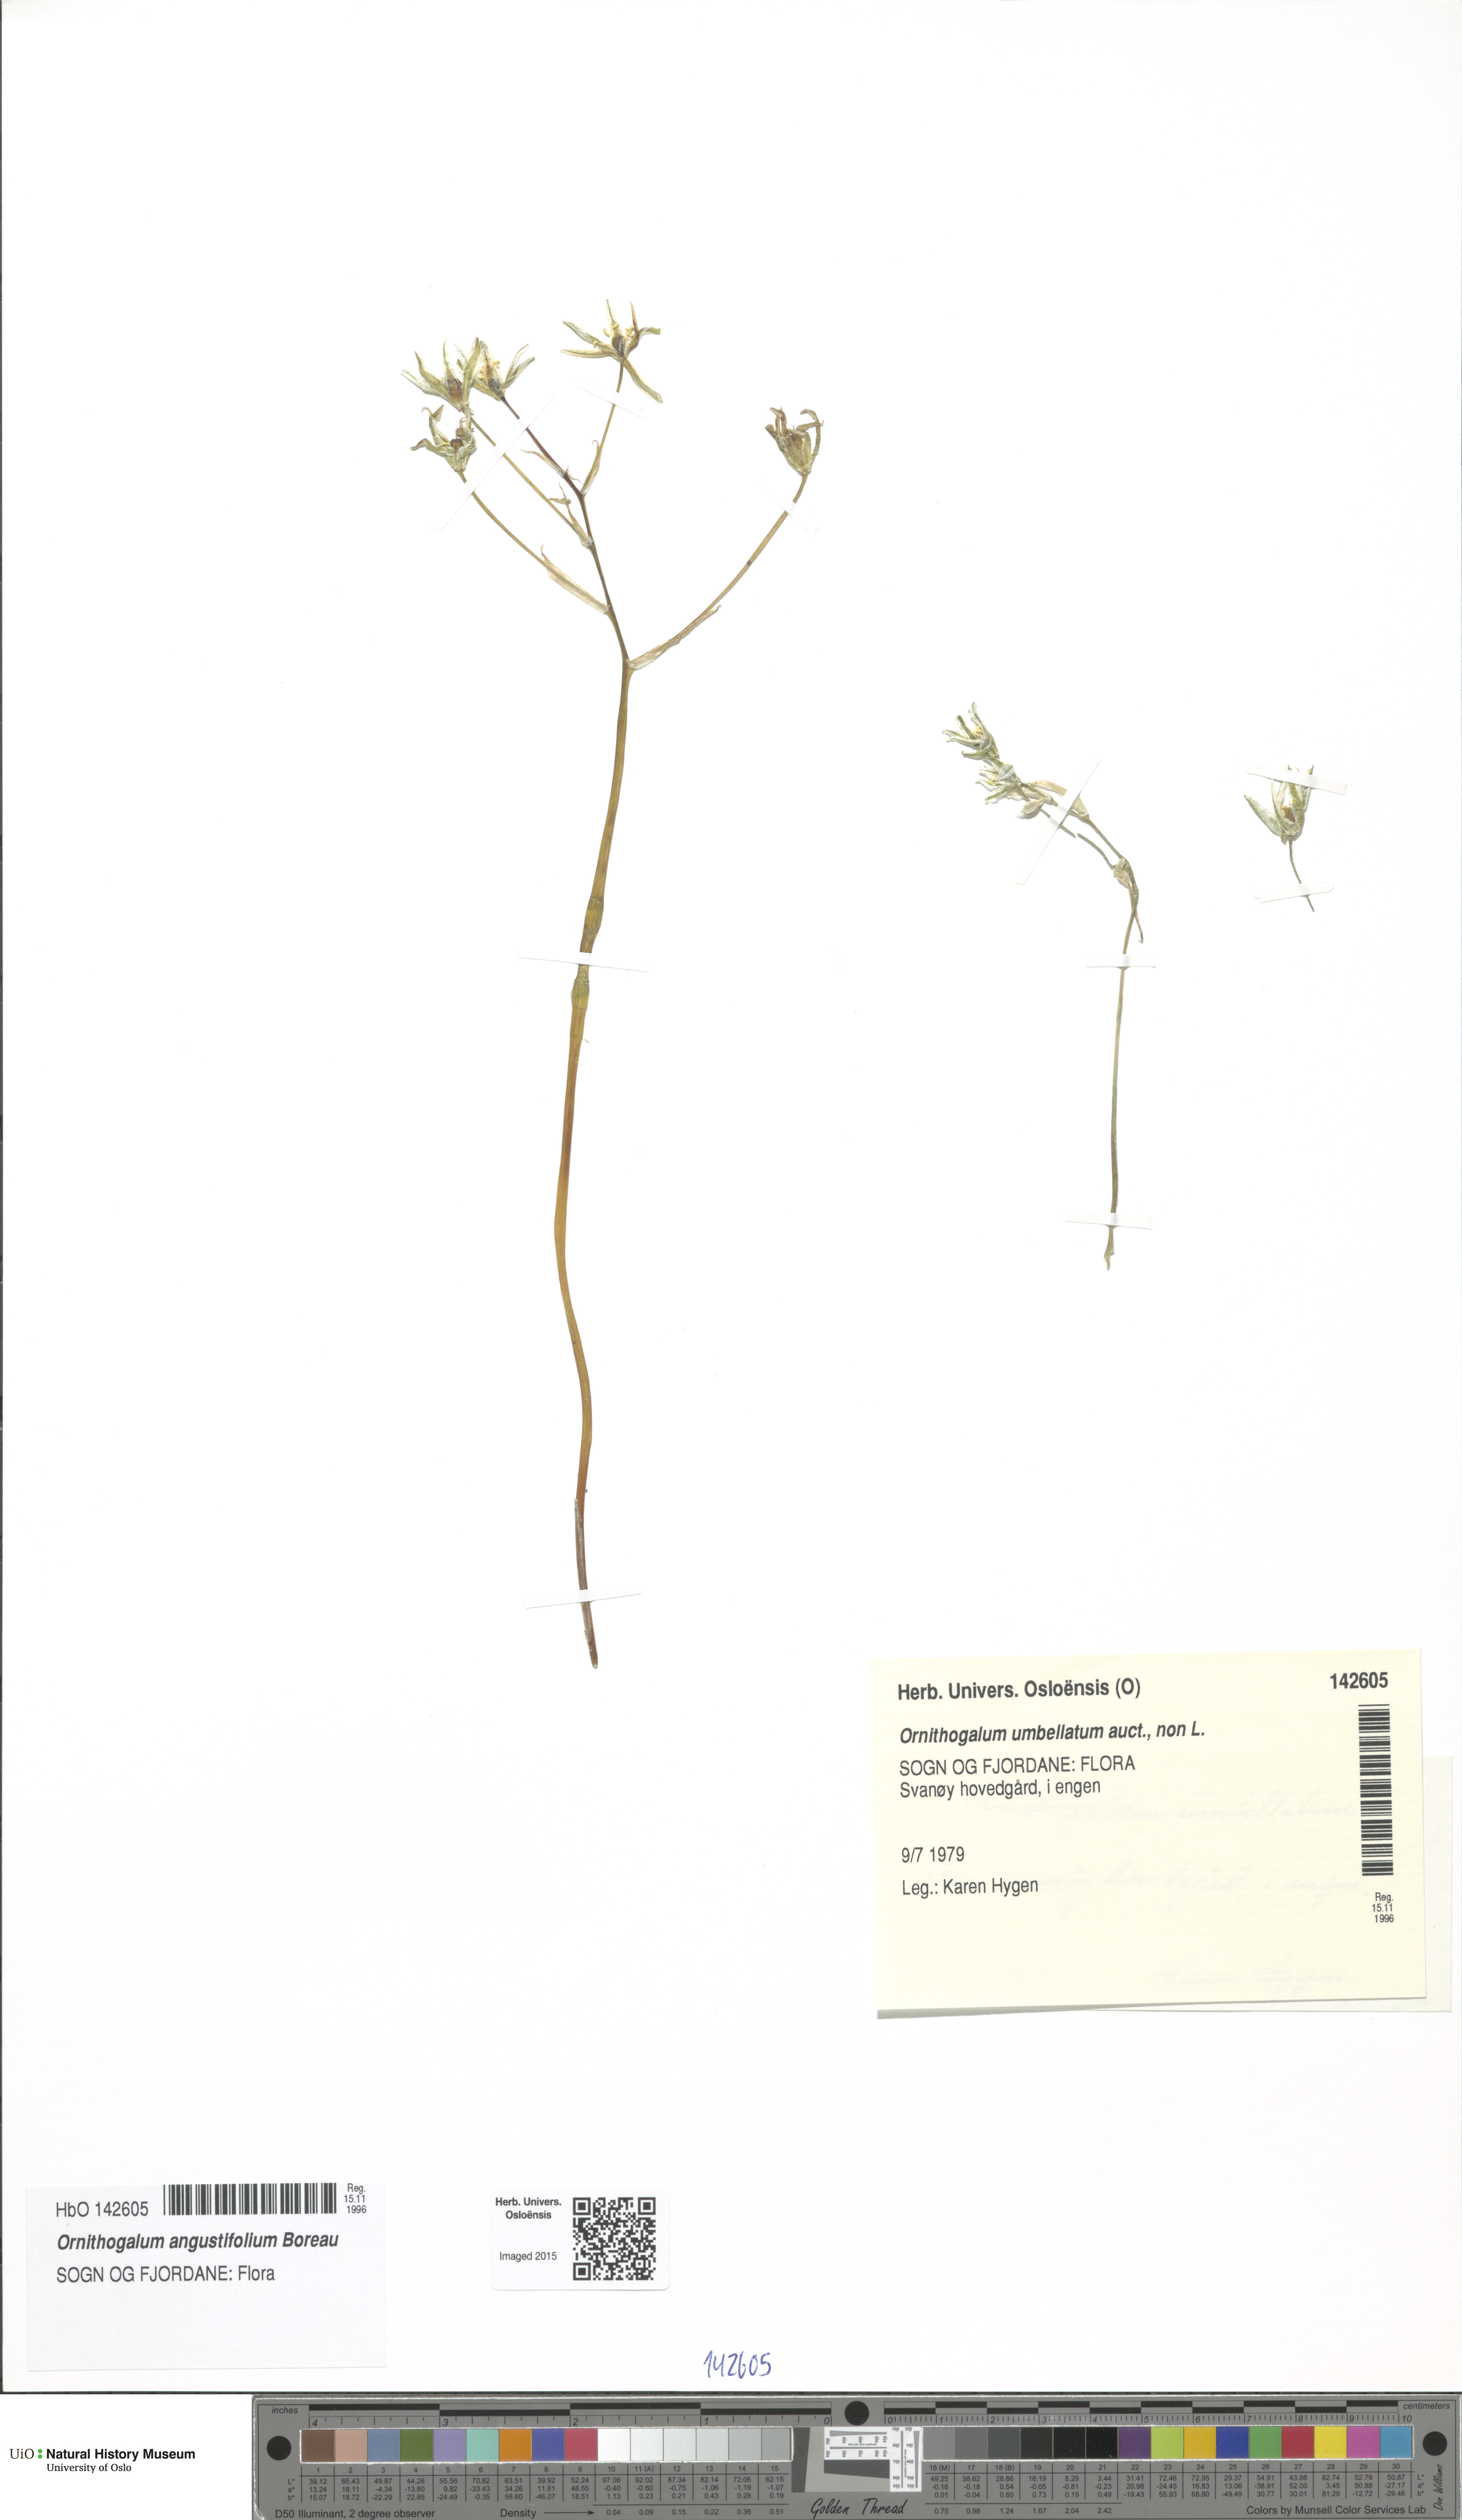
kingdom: Plantae
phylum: Tracheophyta
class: Liliopsida
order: Asparagales
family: Asparagaceae
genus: Ornithogalum
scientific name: Ornithogalum umbellatum
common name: Garden star-of-bethlehem
